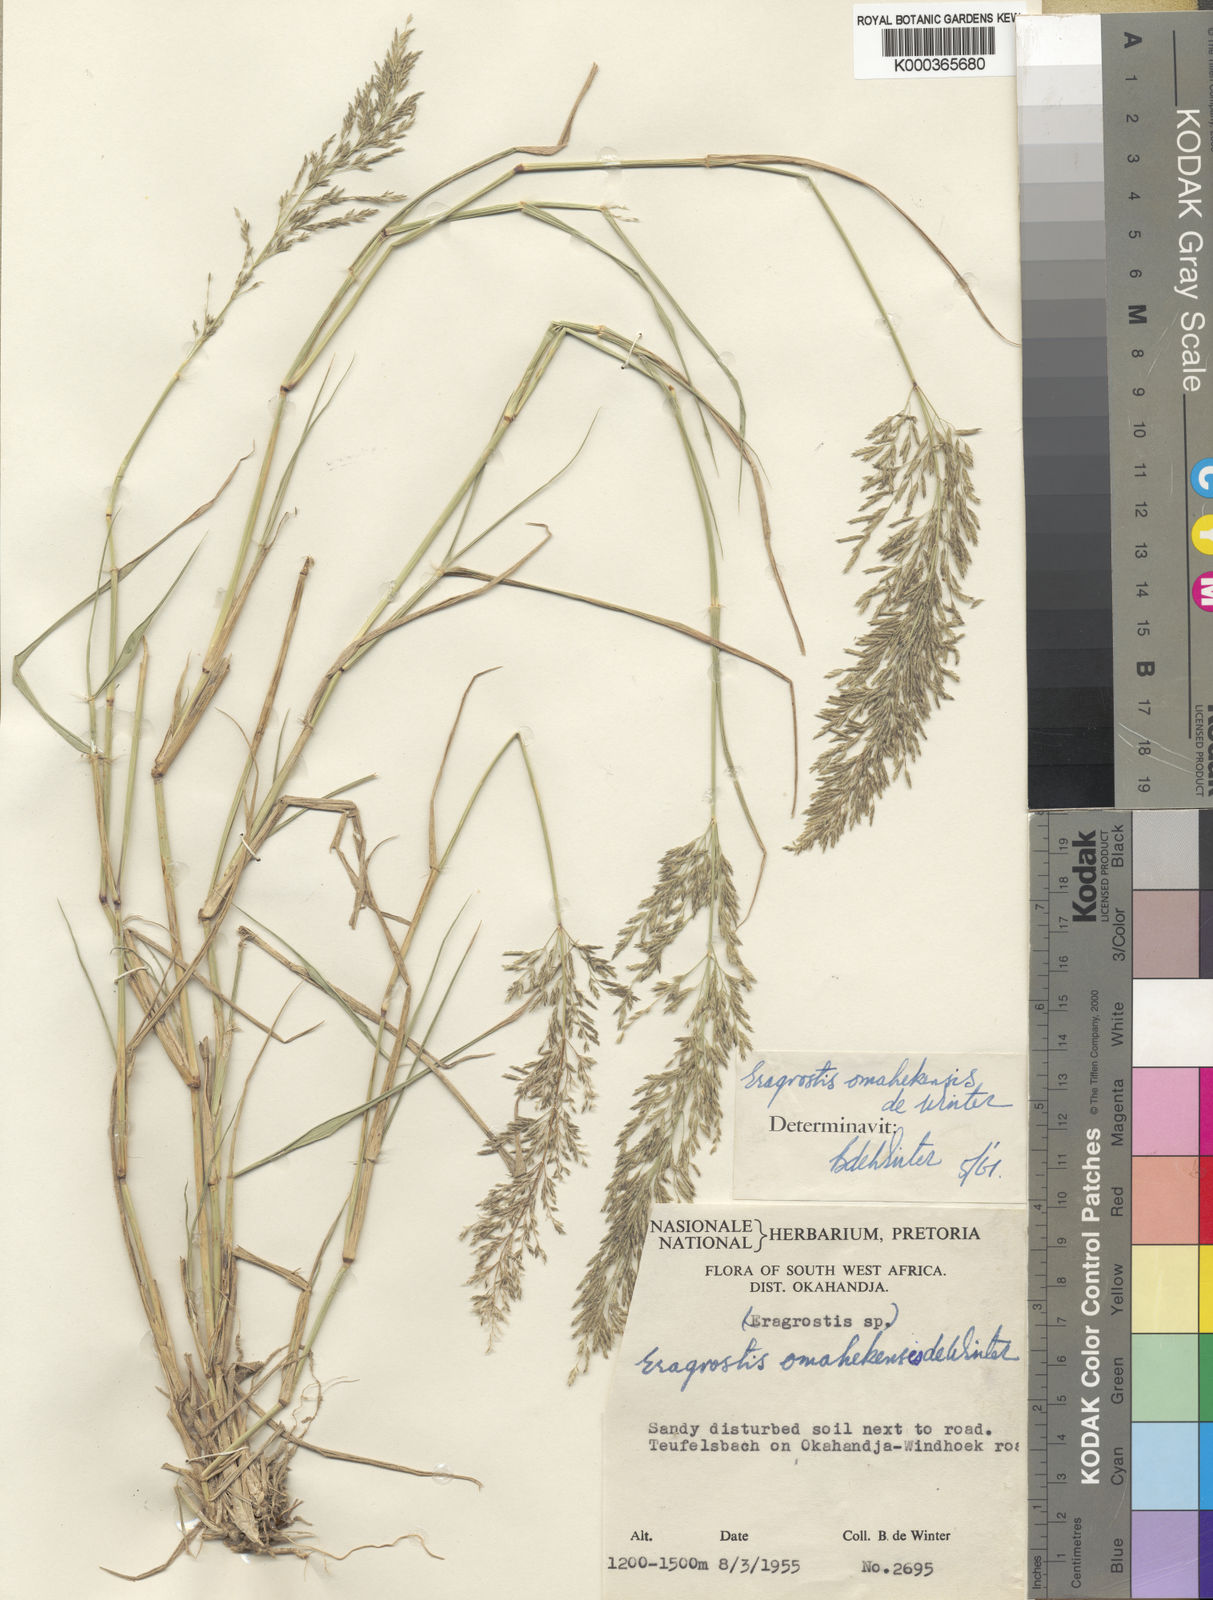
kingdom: Plantae
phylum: Tracheophyta
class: Liliopsida
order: Poales
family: Poaceae
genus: Eragrostis
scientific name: Eragrostis omahekensis
